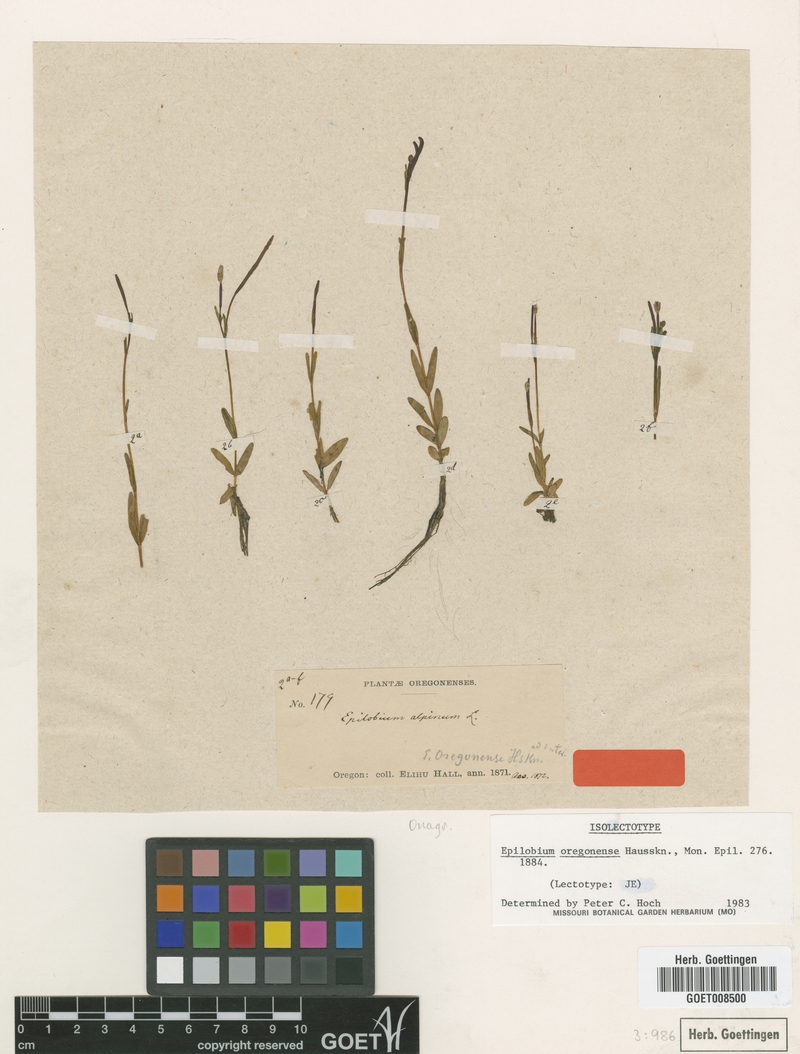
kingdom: Plantae
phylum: Tracheophyta
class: Magnoliopsida
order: Myrtales
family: Onagraceae
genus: Epilobium
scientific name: Epilobium oregonense
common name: Oregon willowherb
